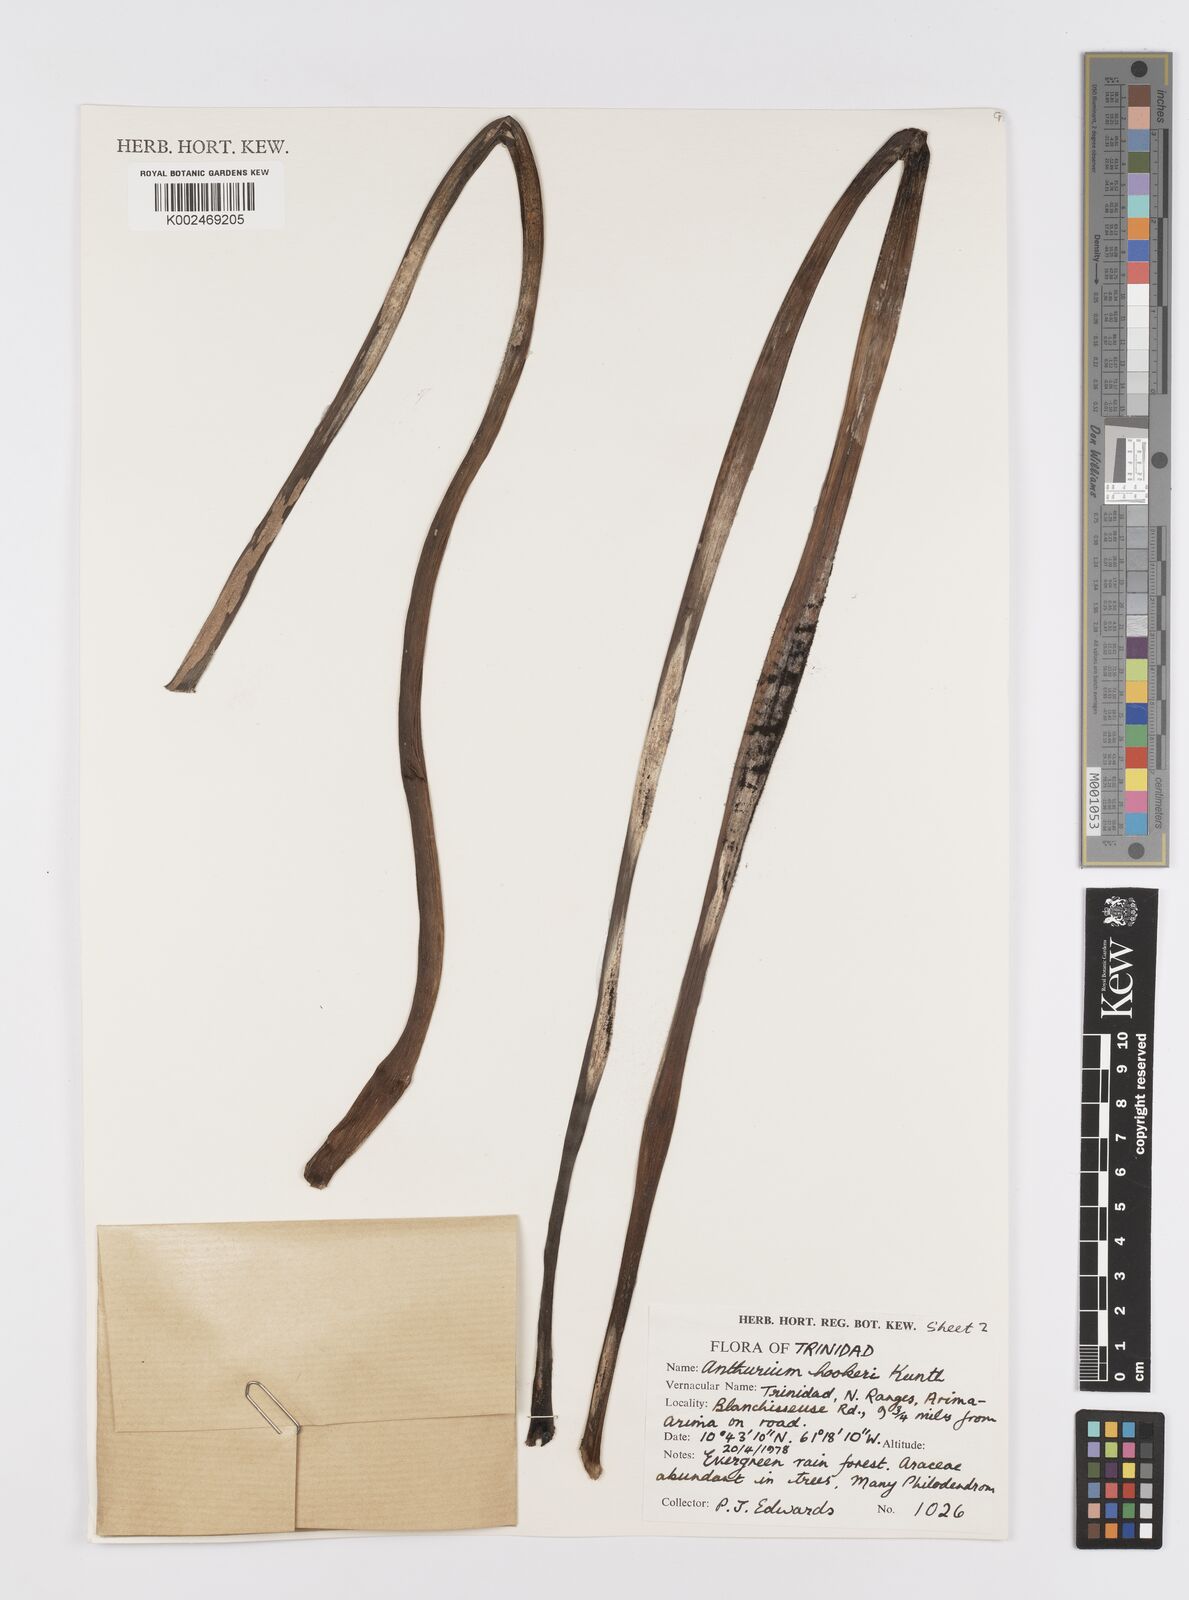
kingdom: Plantae
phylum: Tracheophyta
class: Liliopsida
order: Alismatales
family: Araceae
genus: Anthurium
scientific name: Anthurium hookeri
